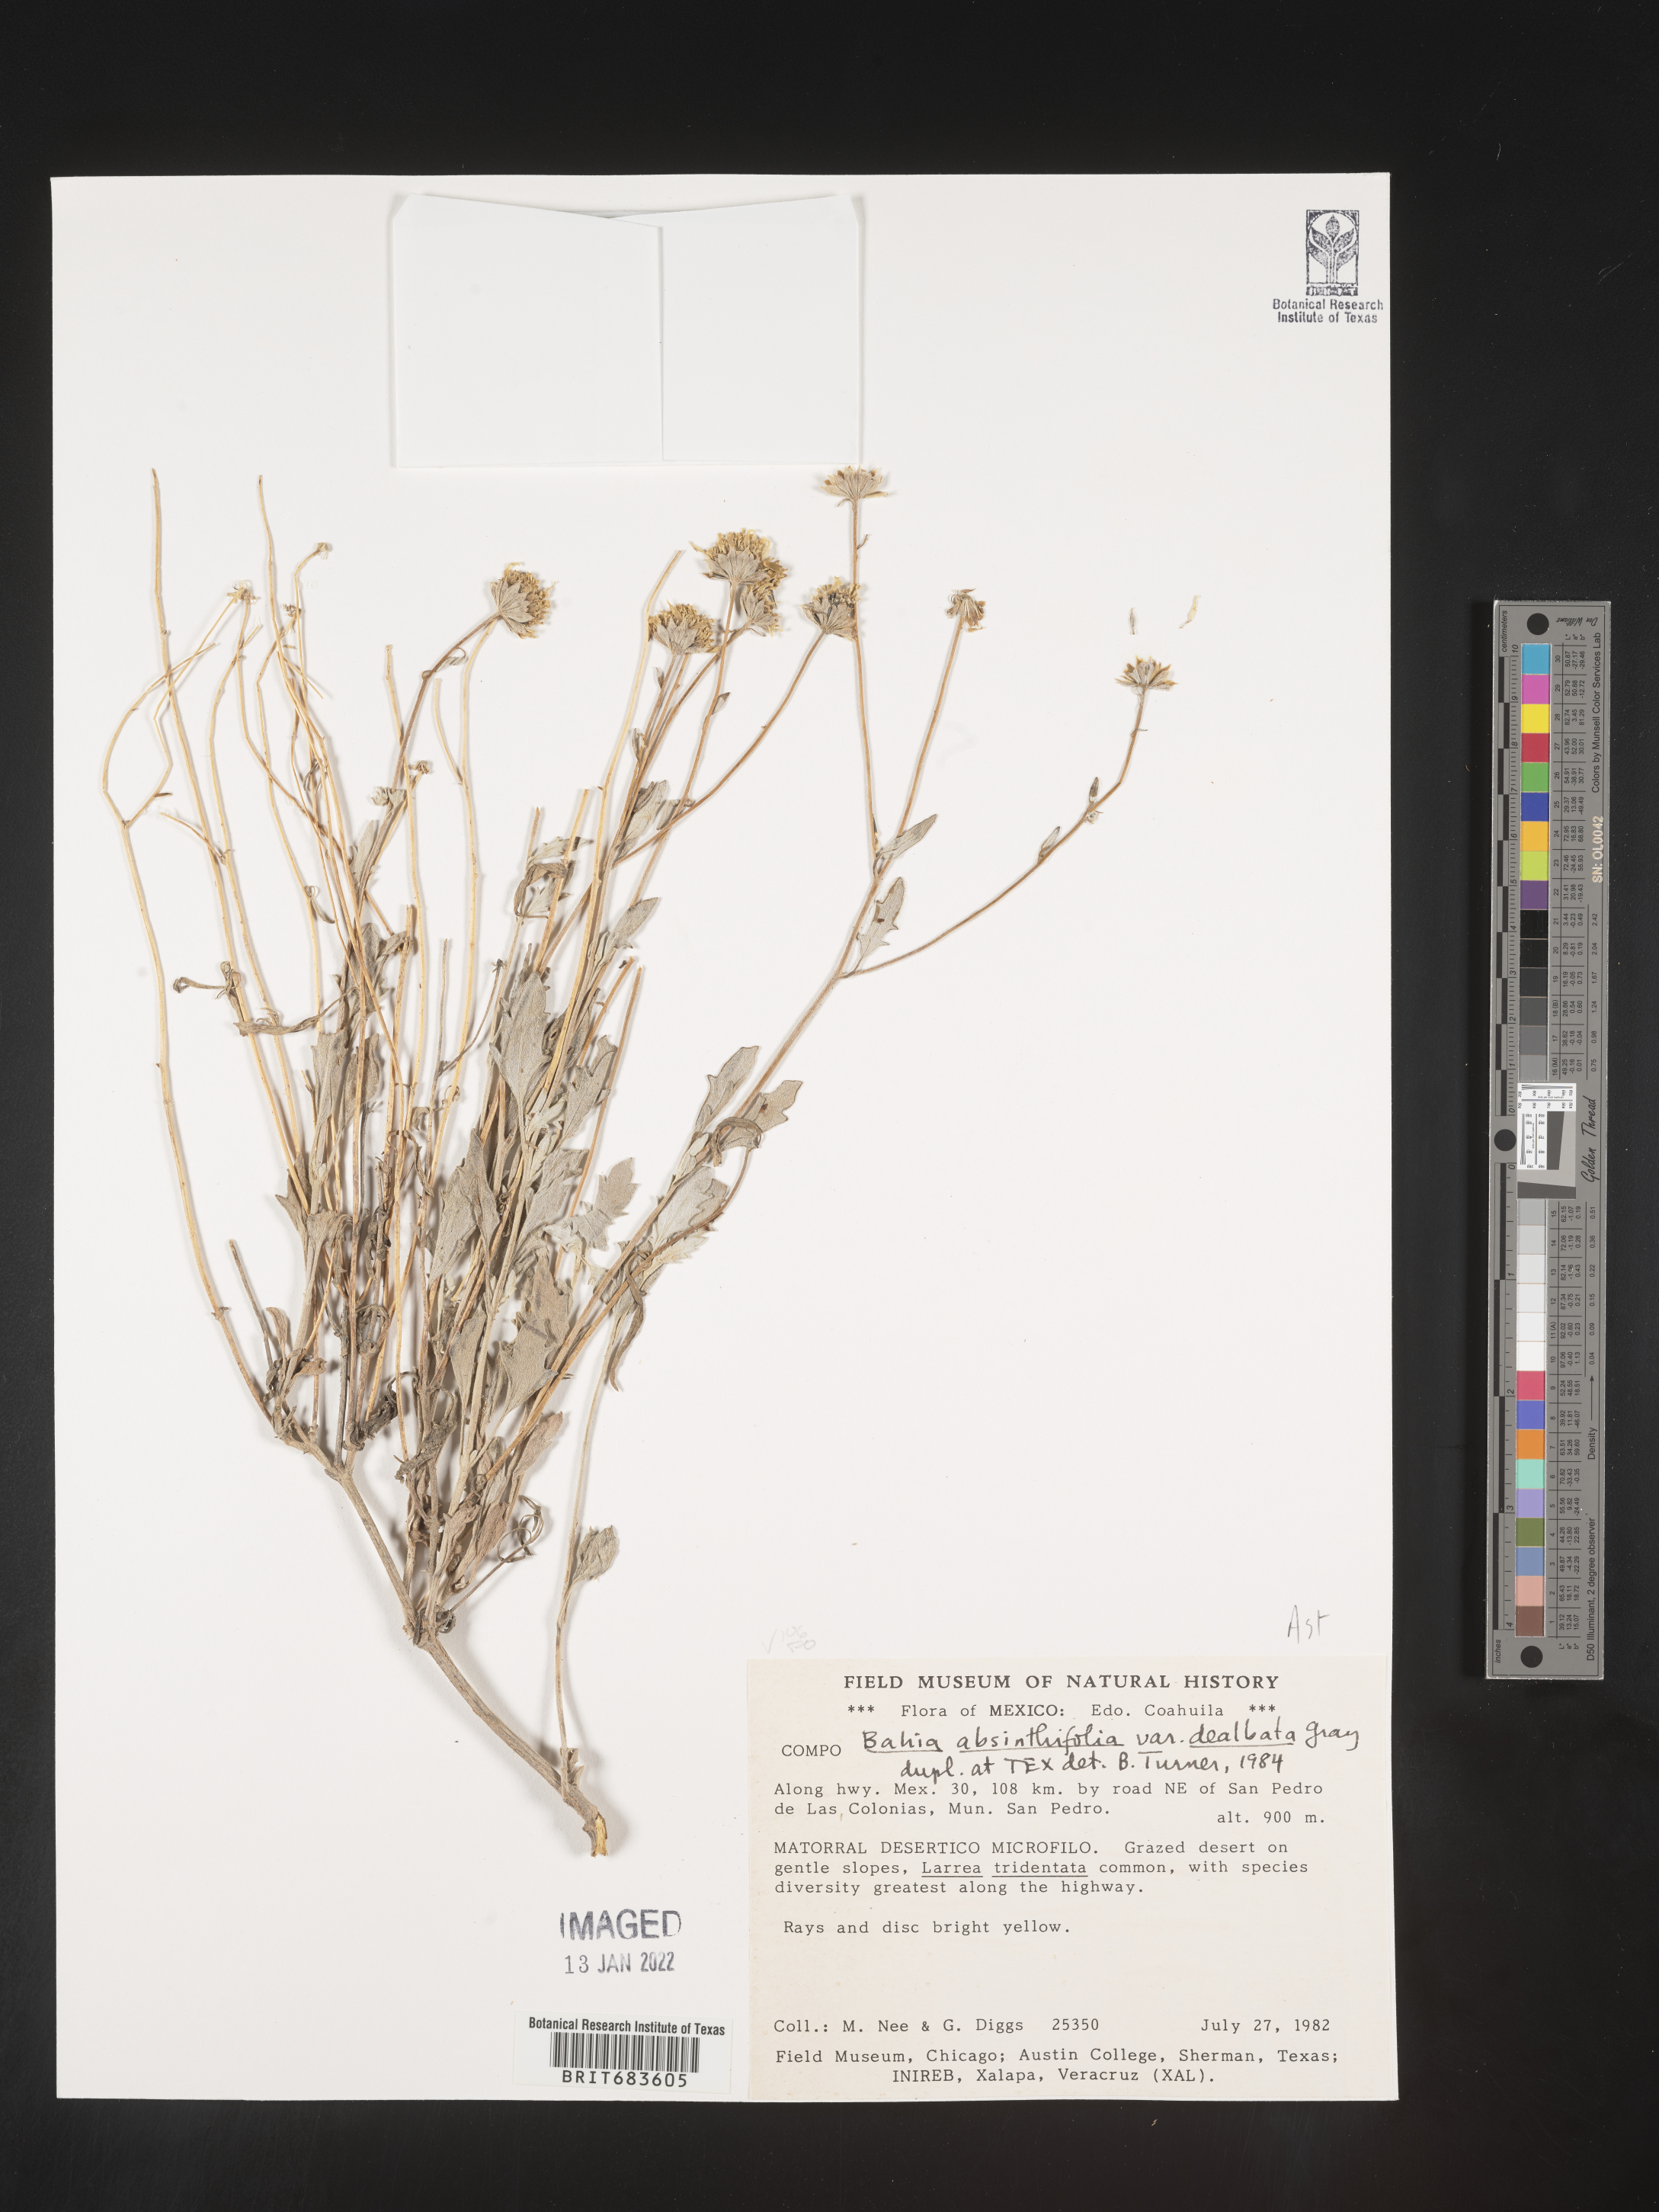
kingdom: Plantae
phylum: Tracheophyta
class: Magnoliopsida
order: Asterales
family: Asteraceae
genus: Picradeniopsis
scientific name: Picradeniopsis absinthifolia
